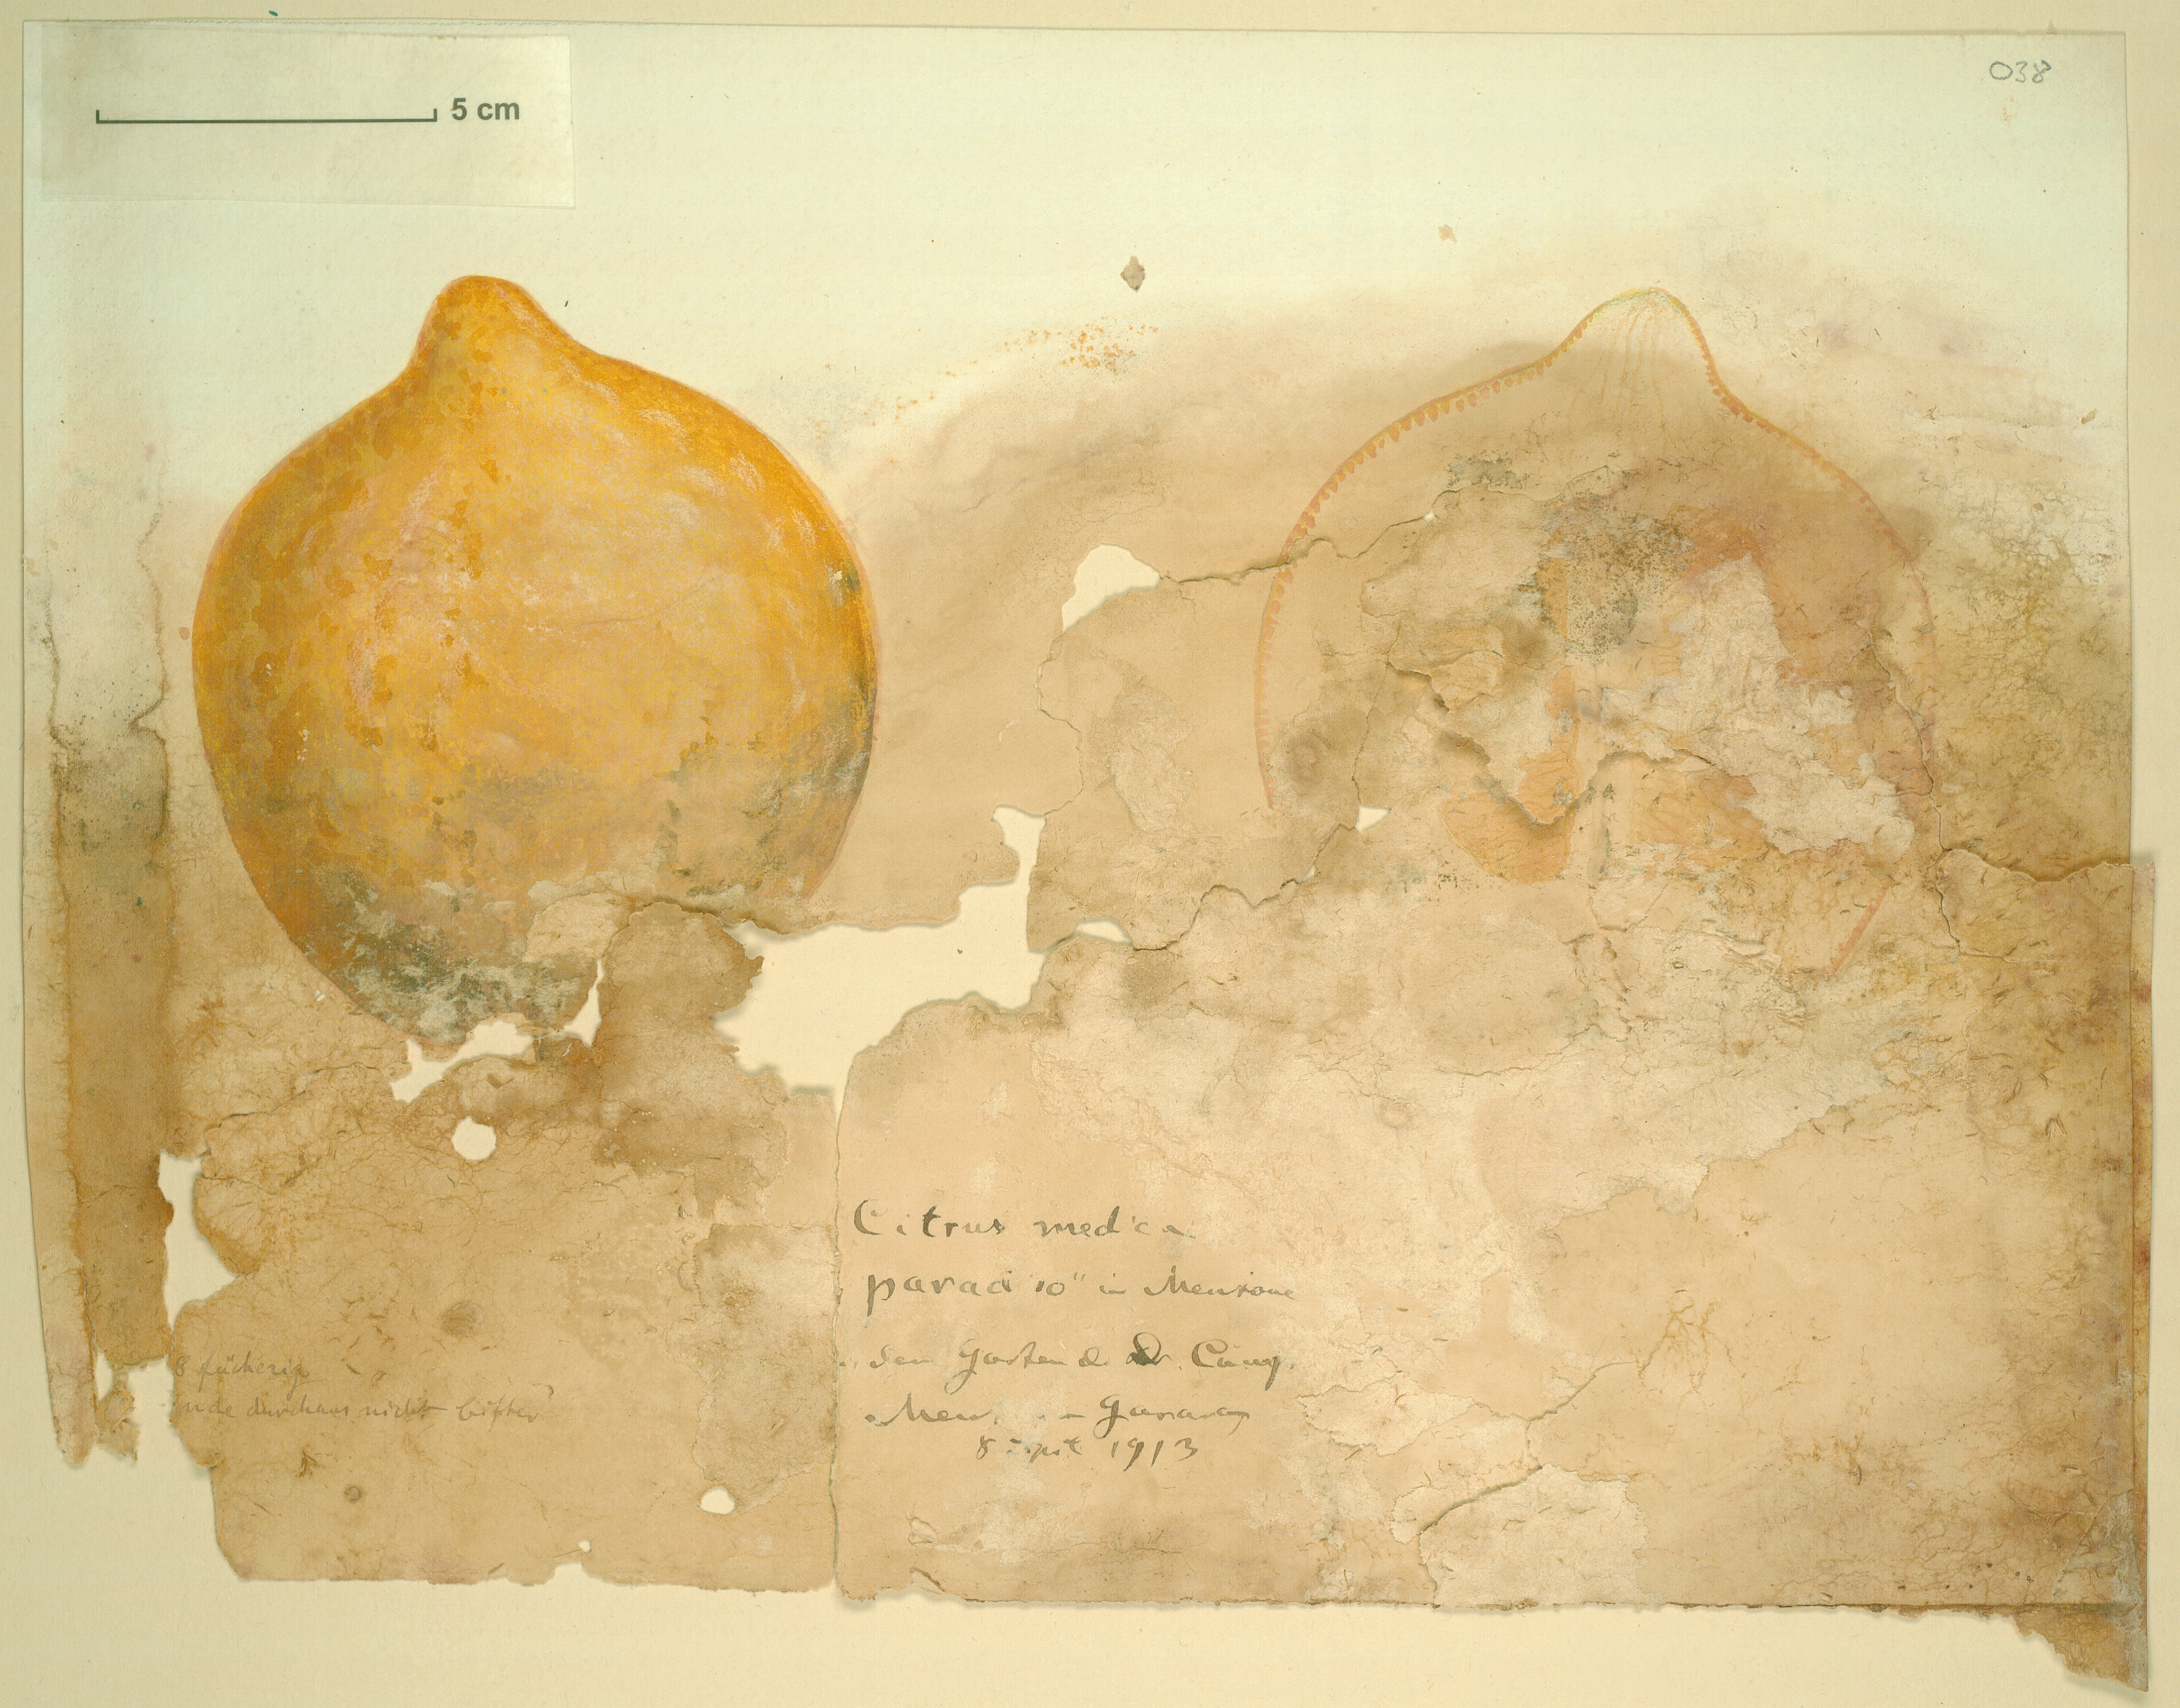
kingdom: Plantae
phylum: Tracheophyta
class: Magnoliopsida
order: Sapindales
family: Rutaceae
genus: Citrus
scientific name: Citrus medica
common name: Citron
